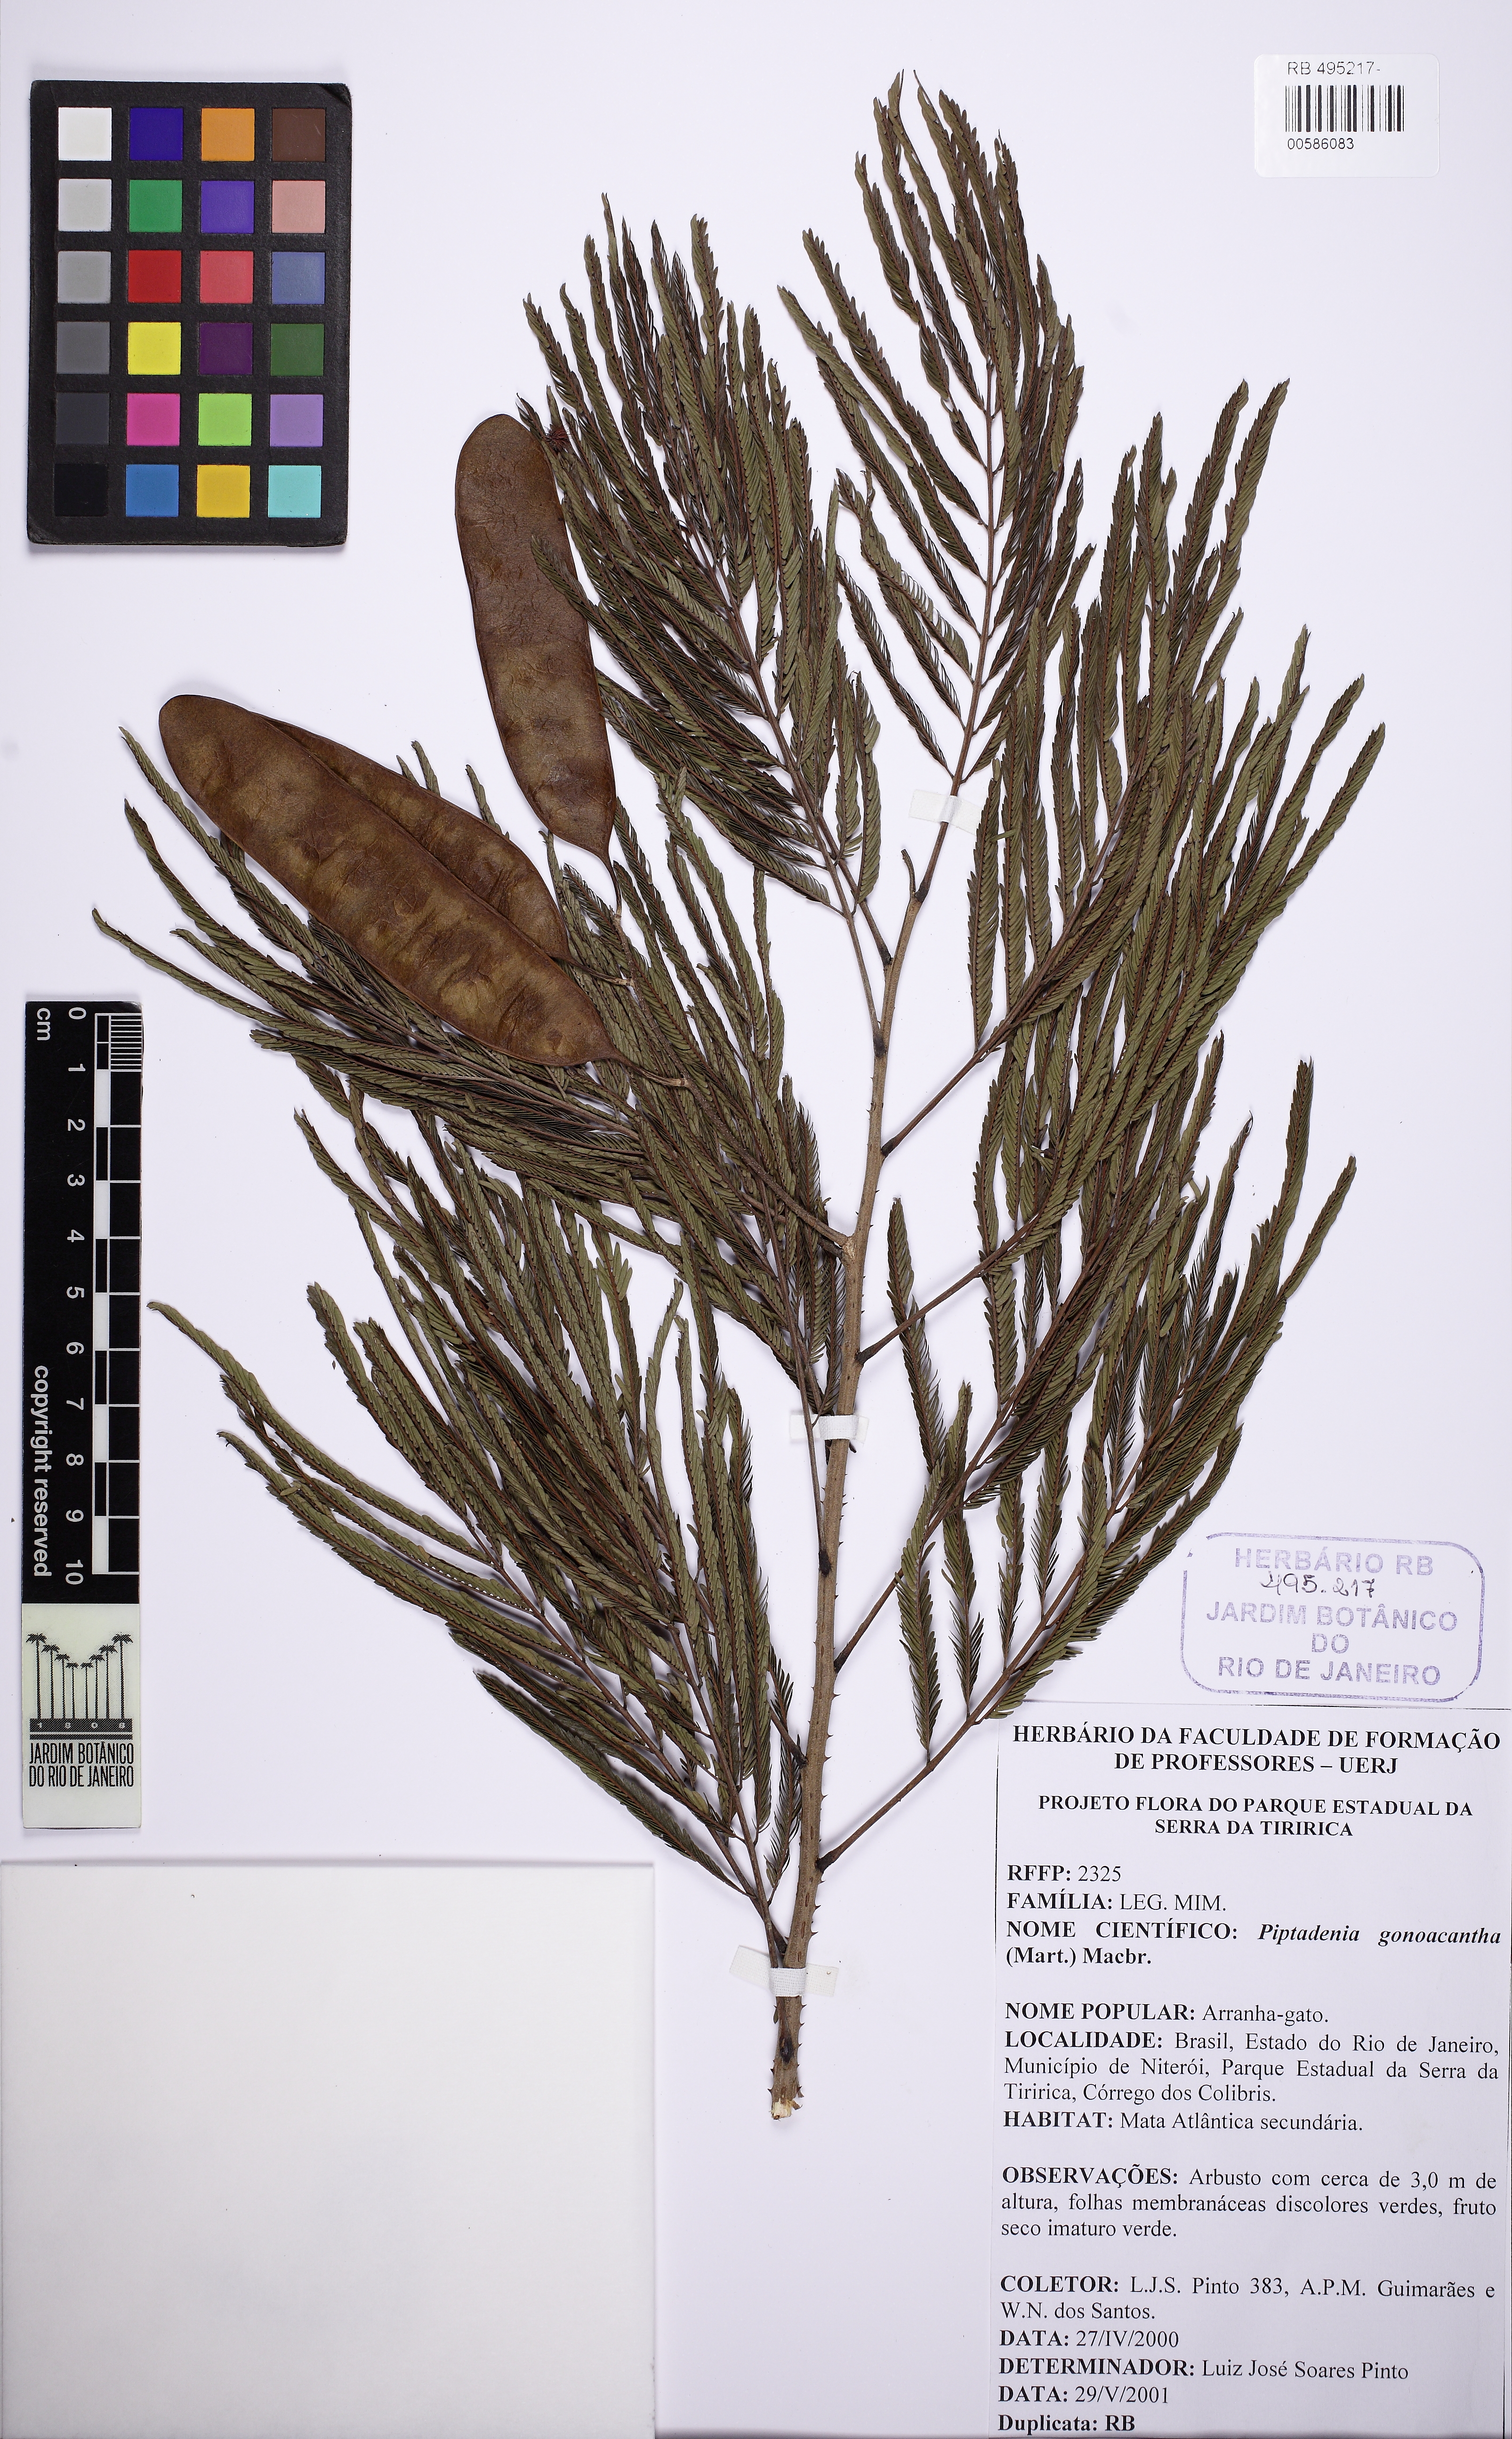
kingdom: Plantae
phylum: Tracheophyta
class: Magnoliopsida
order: Fabales
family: Fabaceae
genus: Piptadenia
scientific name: Piptadenia gonoacantha
